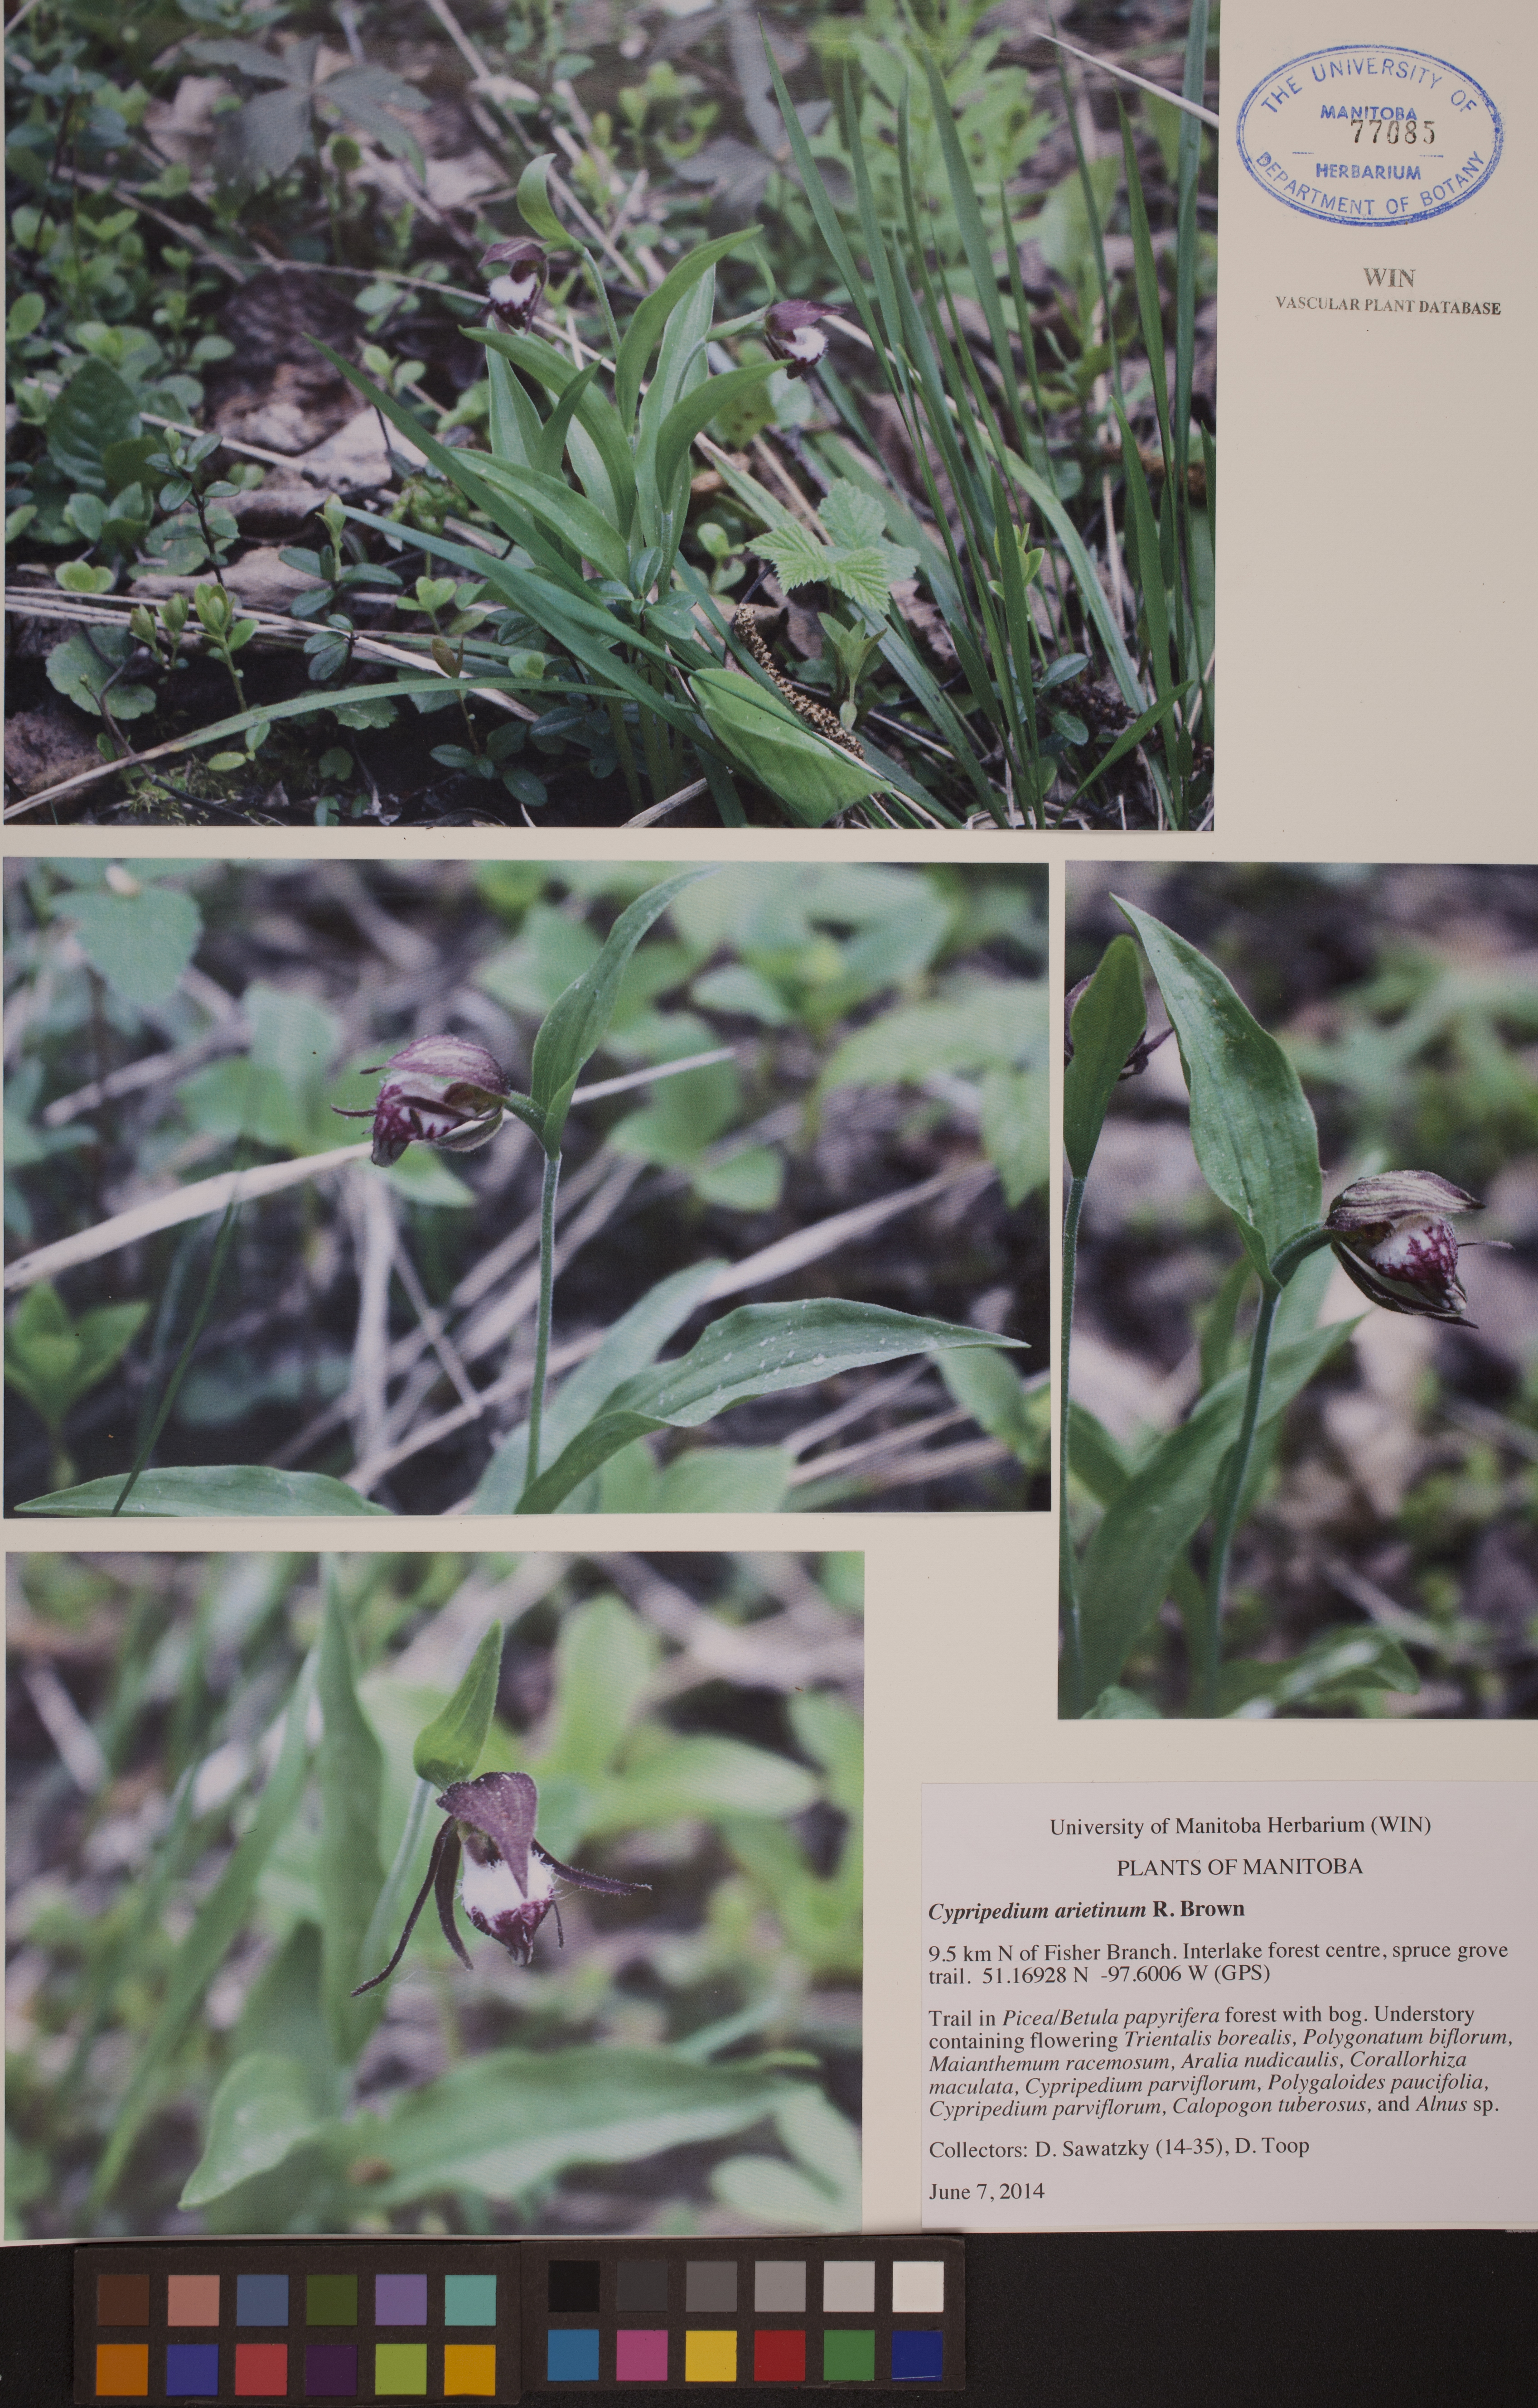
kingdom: Plantae
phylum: Tracheophyta
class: Liliopsida
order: Asparagales
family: Orchidaceae
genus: Cypripedium
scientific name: Cypripedium arietinum
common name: Ram's-head
